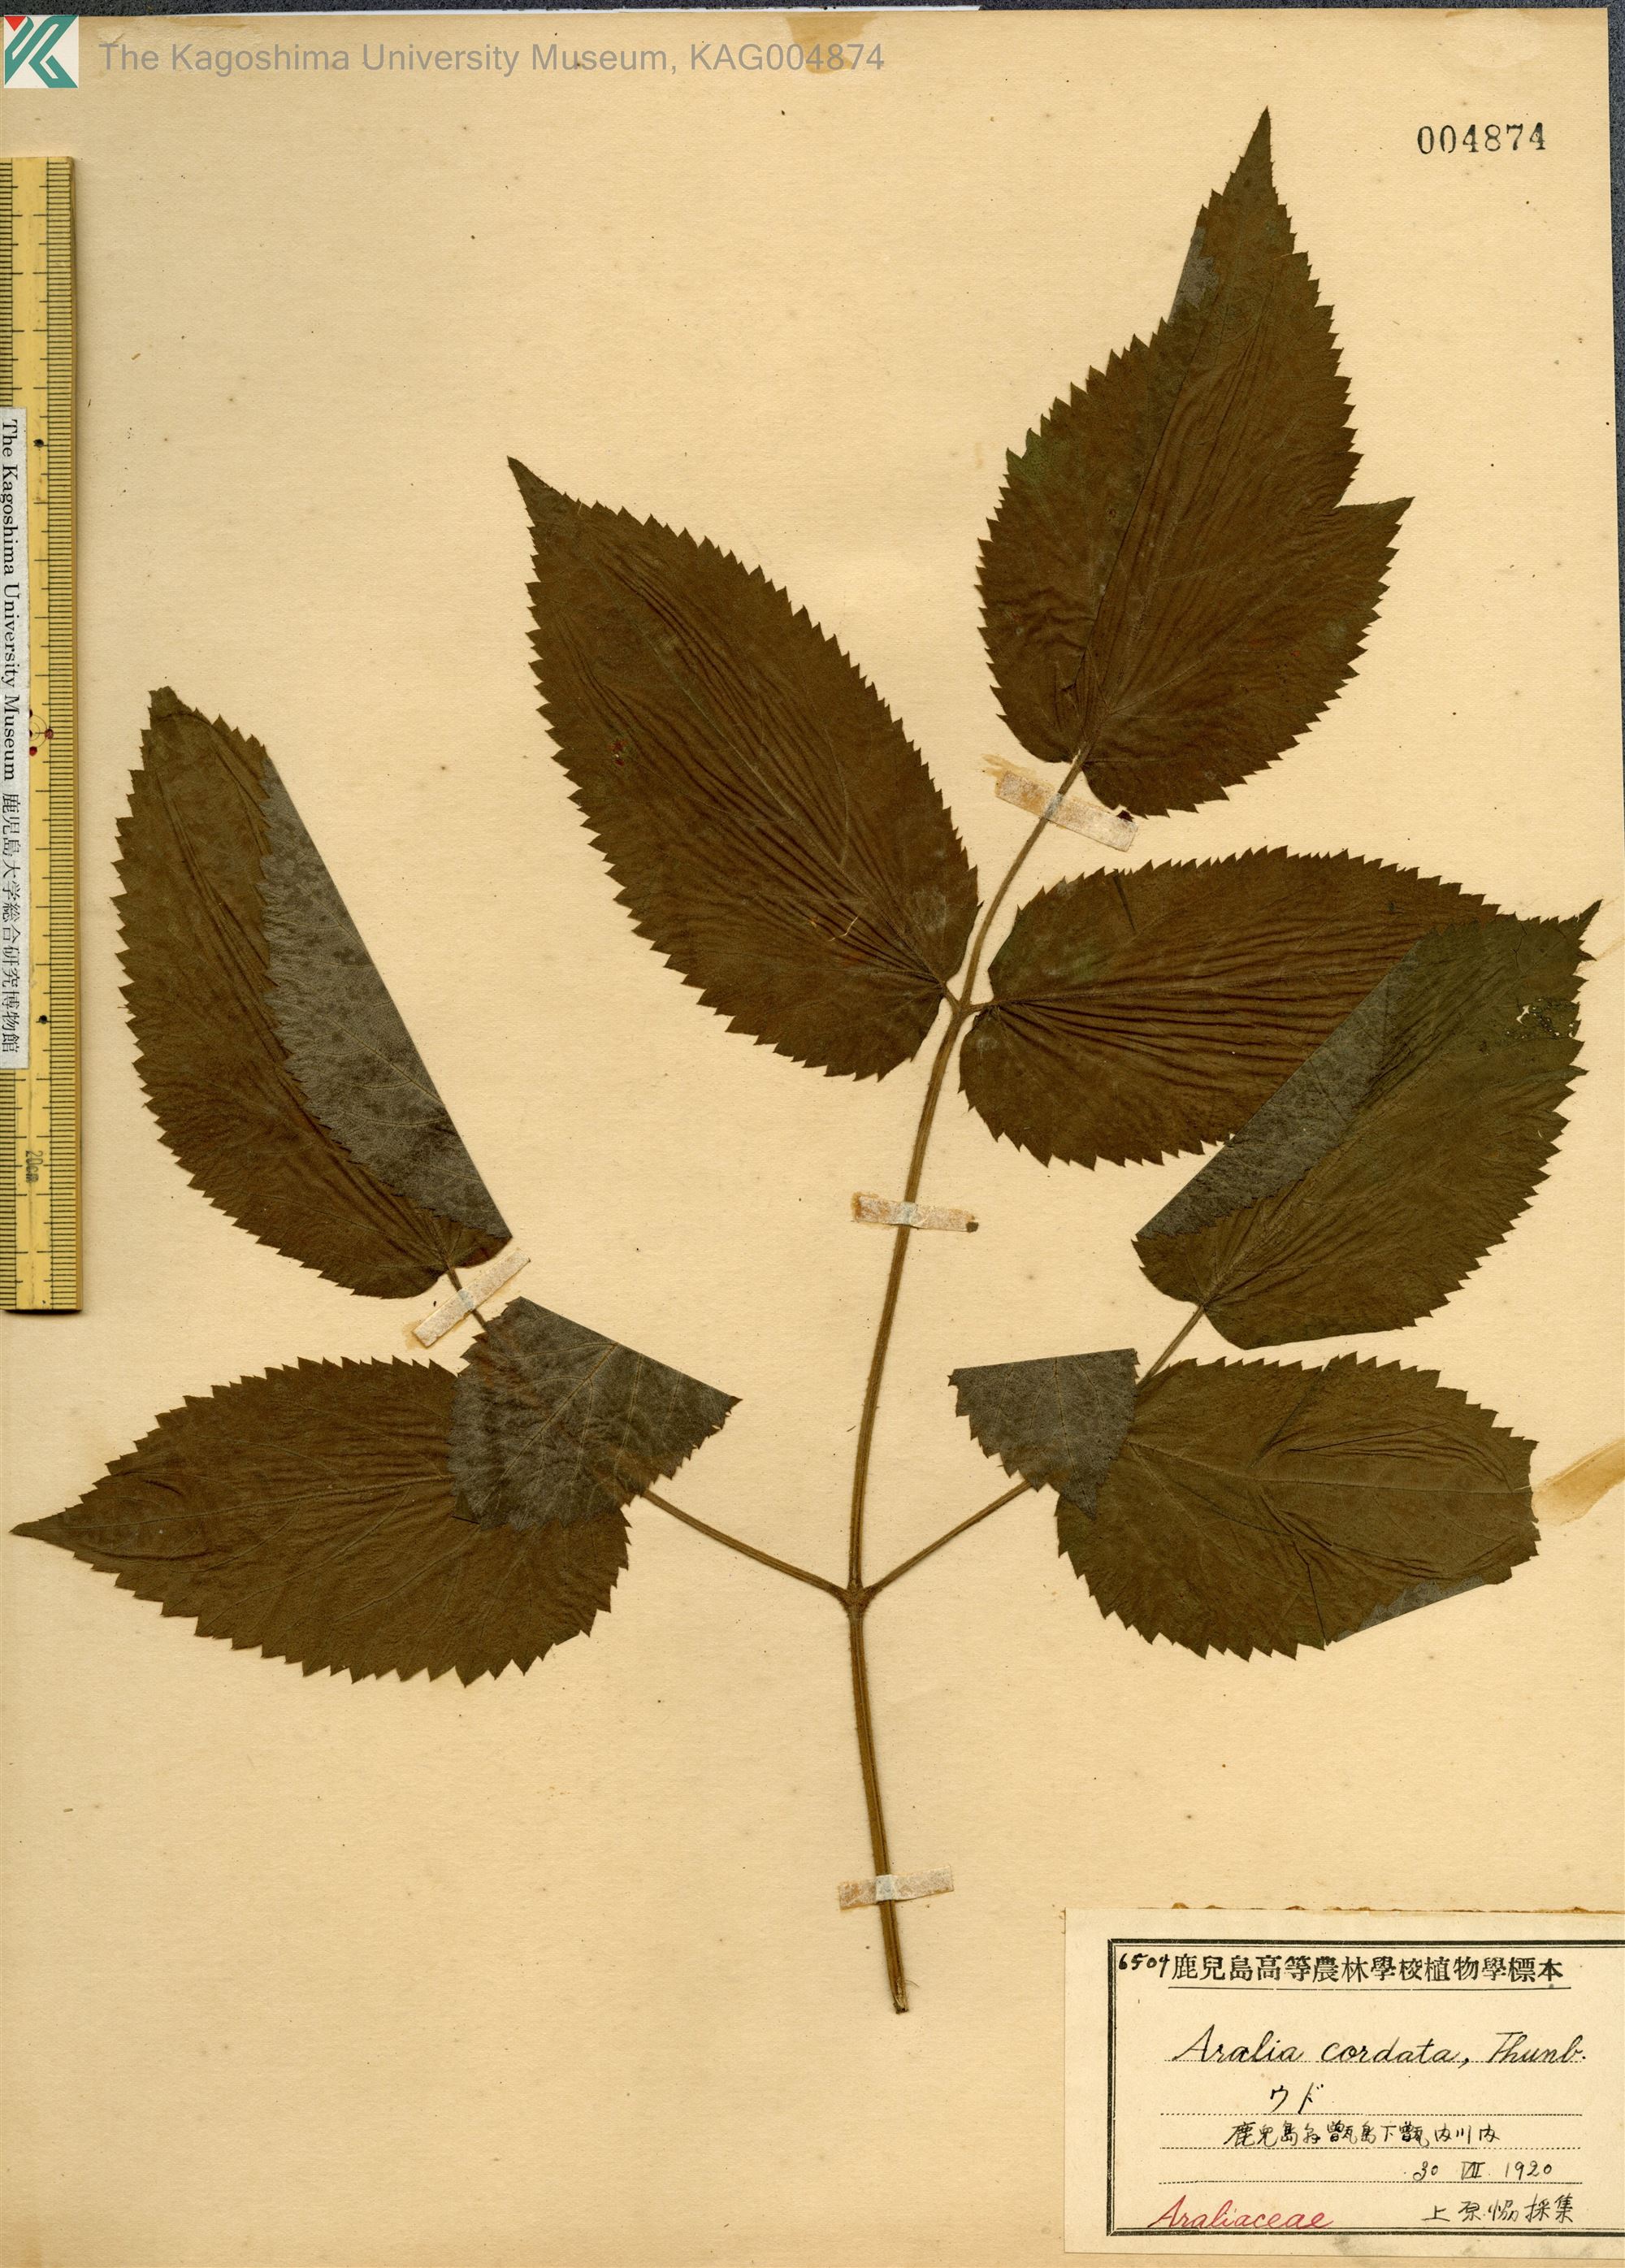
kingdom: Plantae
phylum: Tracheophyta
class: Magnoliopsida
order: Apiales
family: Araliaceae
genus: Aralia
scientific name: Aralia cordata
